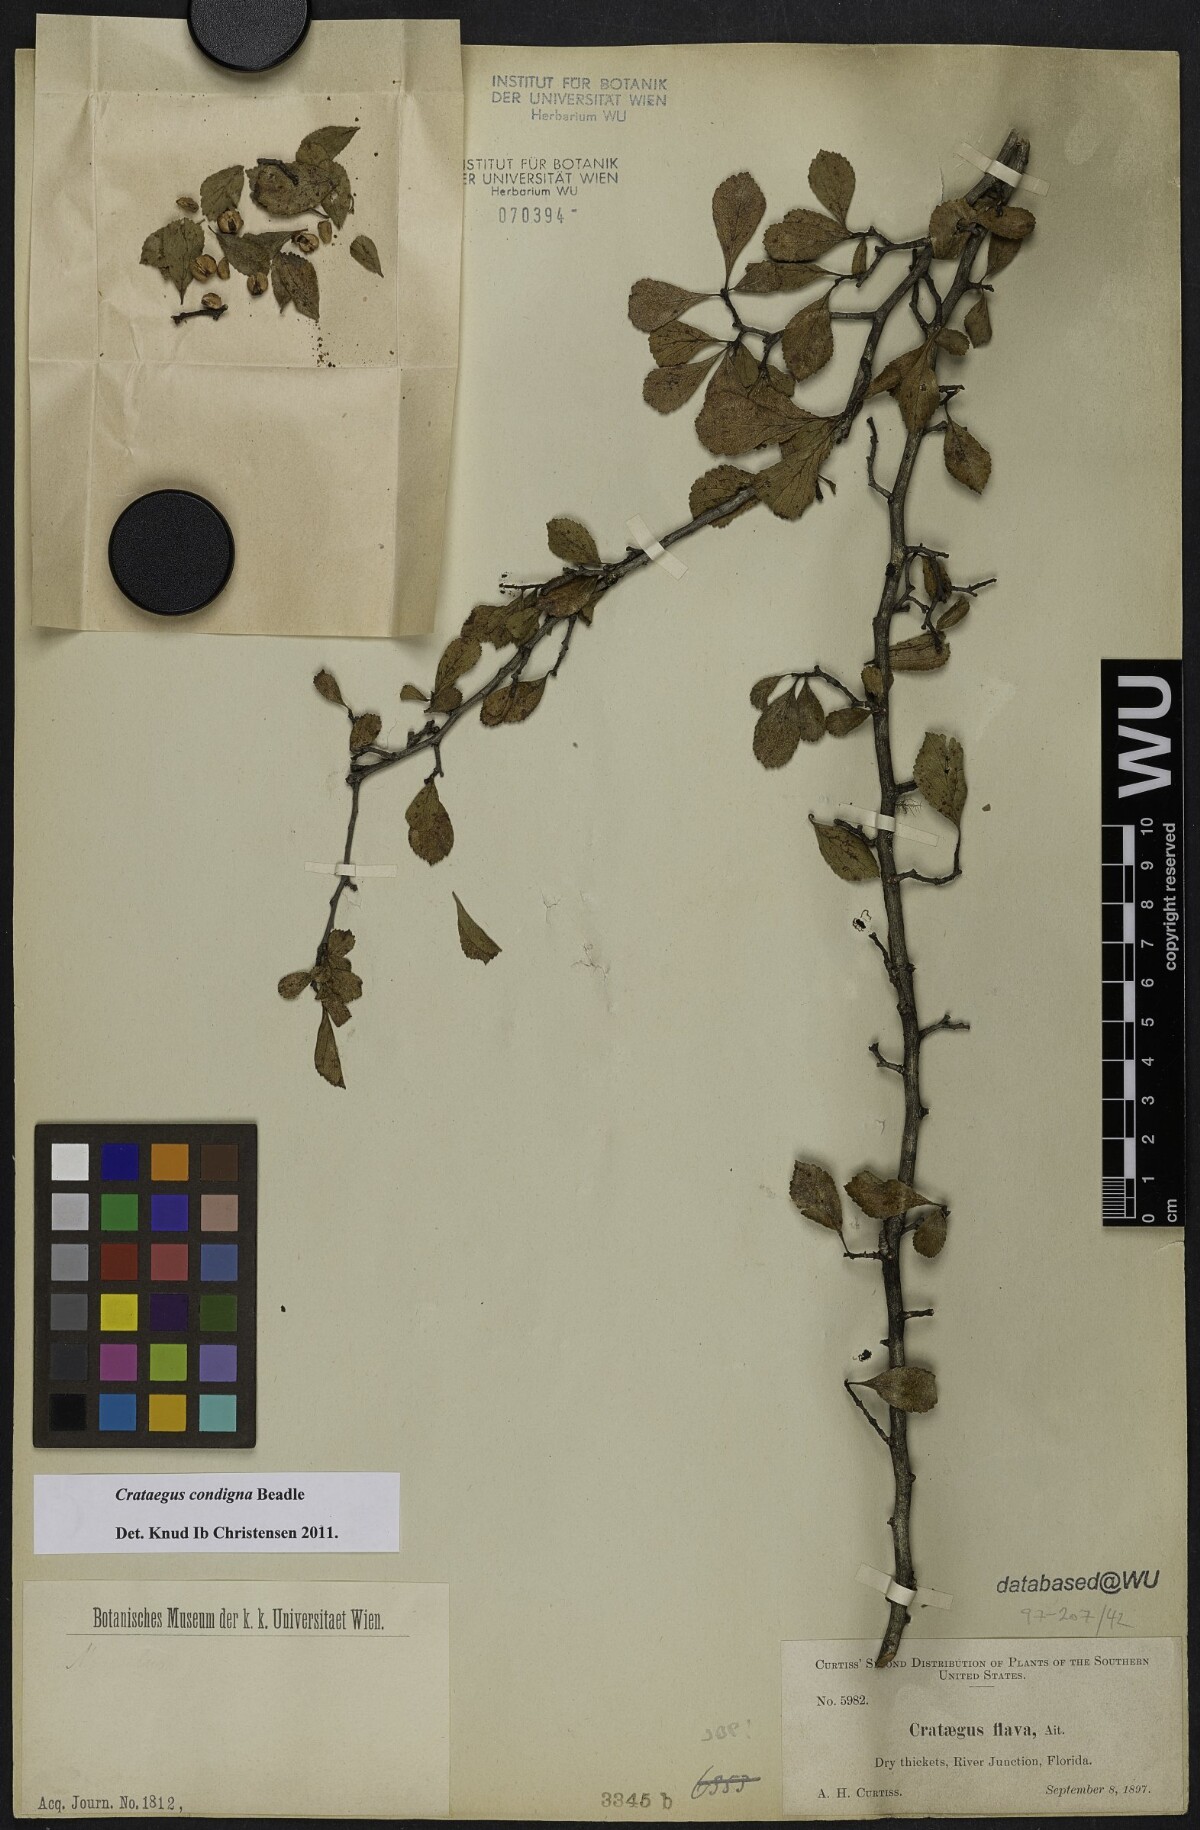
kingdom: Plantae
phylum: Tracheophyta
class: Magnoliopsida
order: Rosales
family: Rosaceae
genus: Crataegus
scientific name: Crataegus condigna
